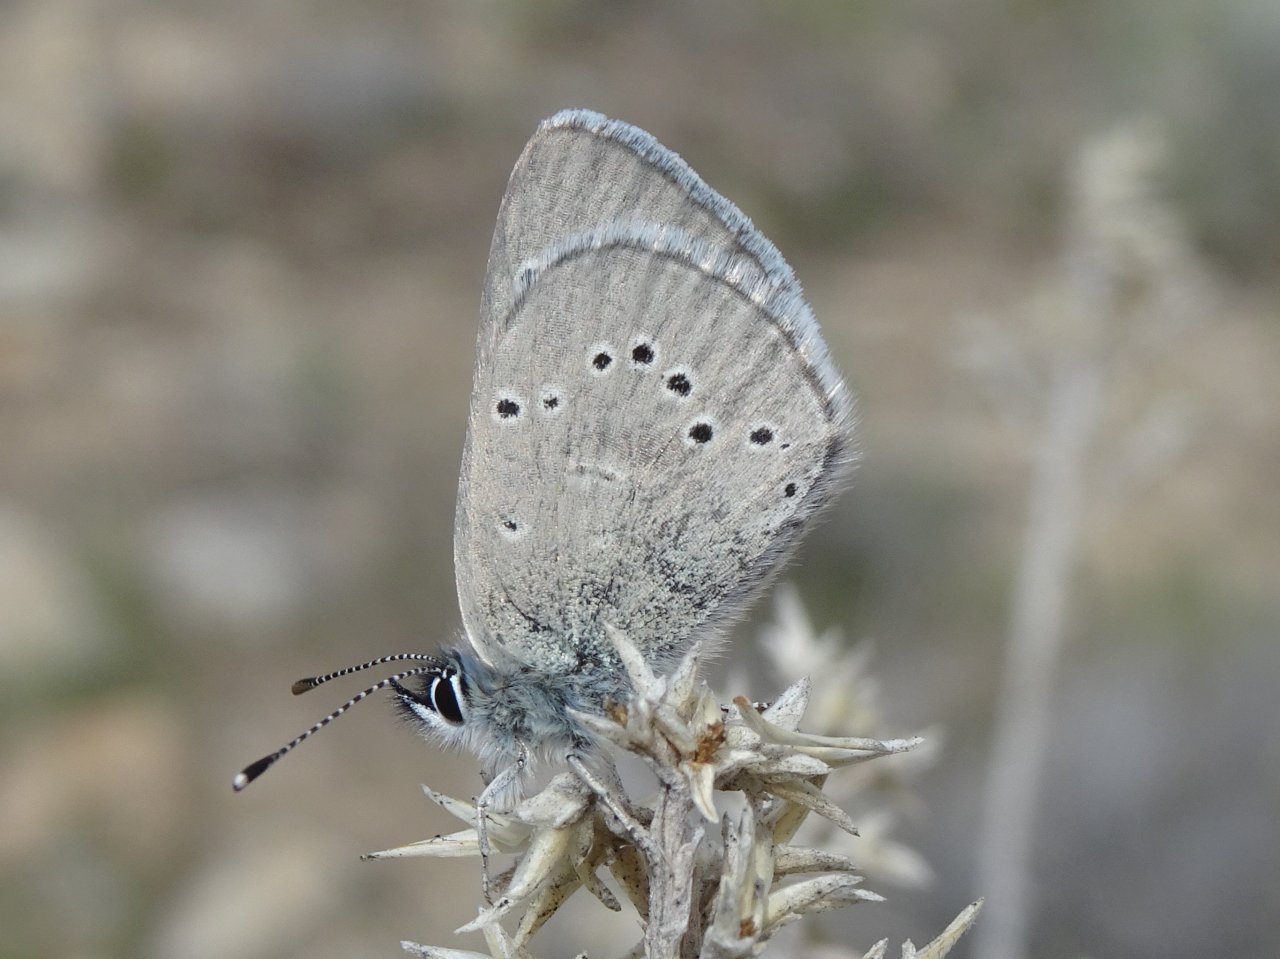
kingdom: Animalia
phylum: Arthropoda
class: Insecta
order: Lepidoptera
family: Lycaenidae
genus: Glaucopsyche
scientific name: Glaucopsyche lygdamus
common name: Silvery Blue
